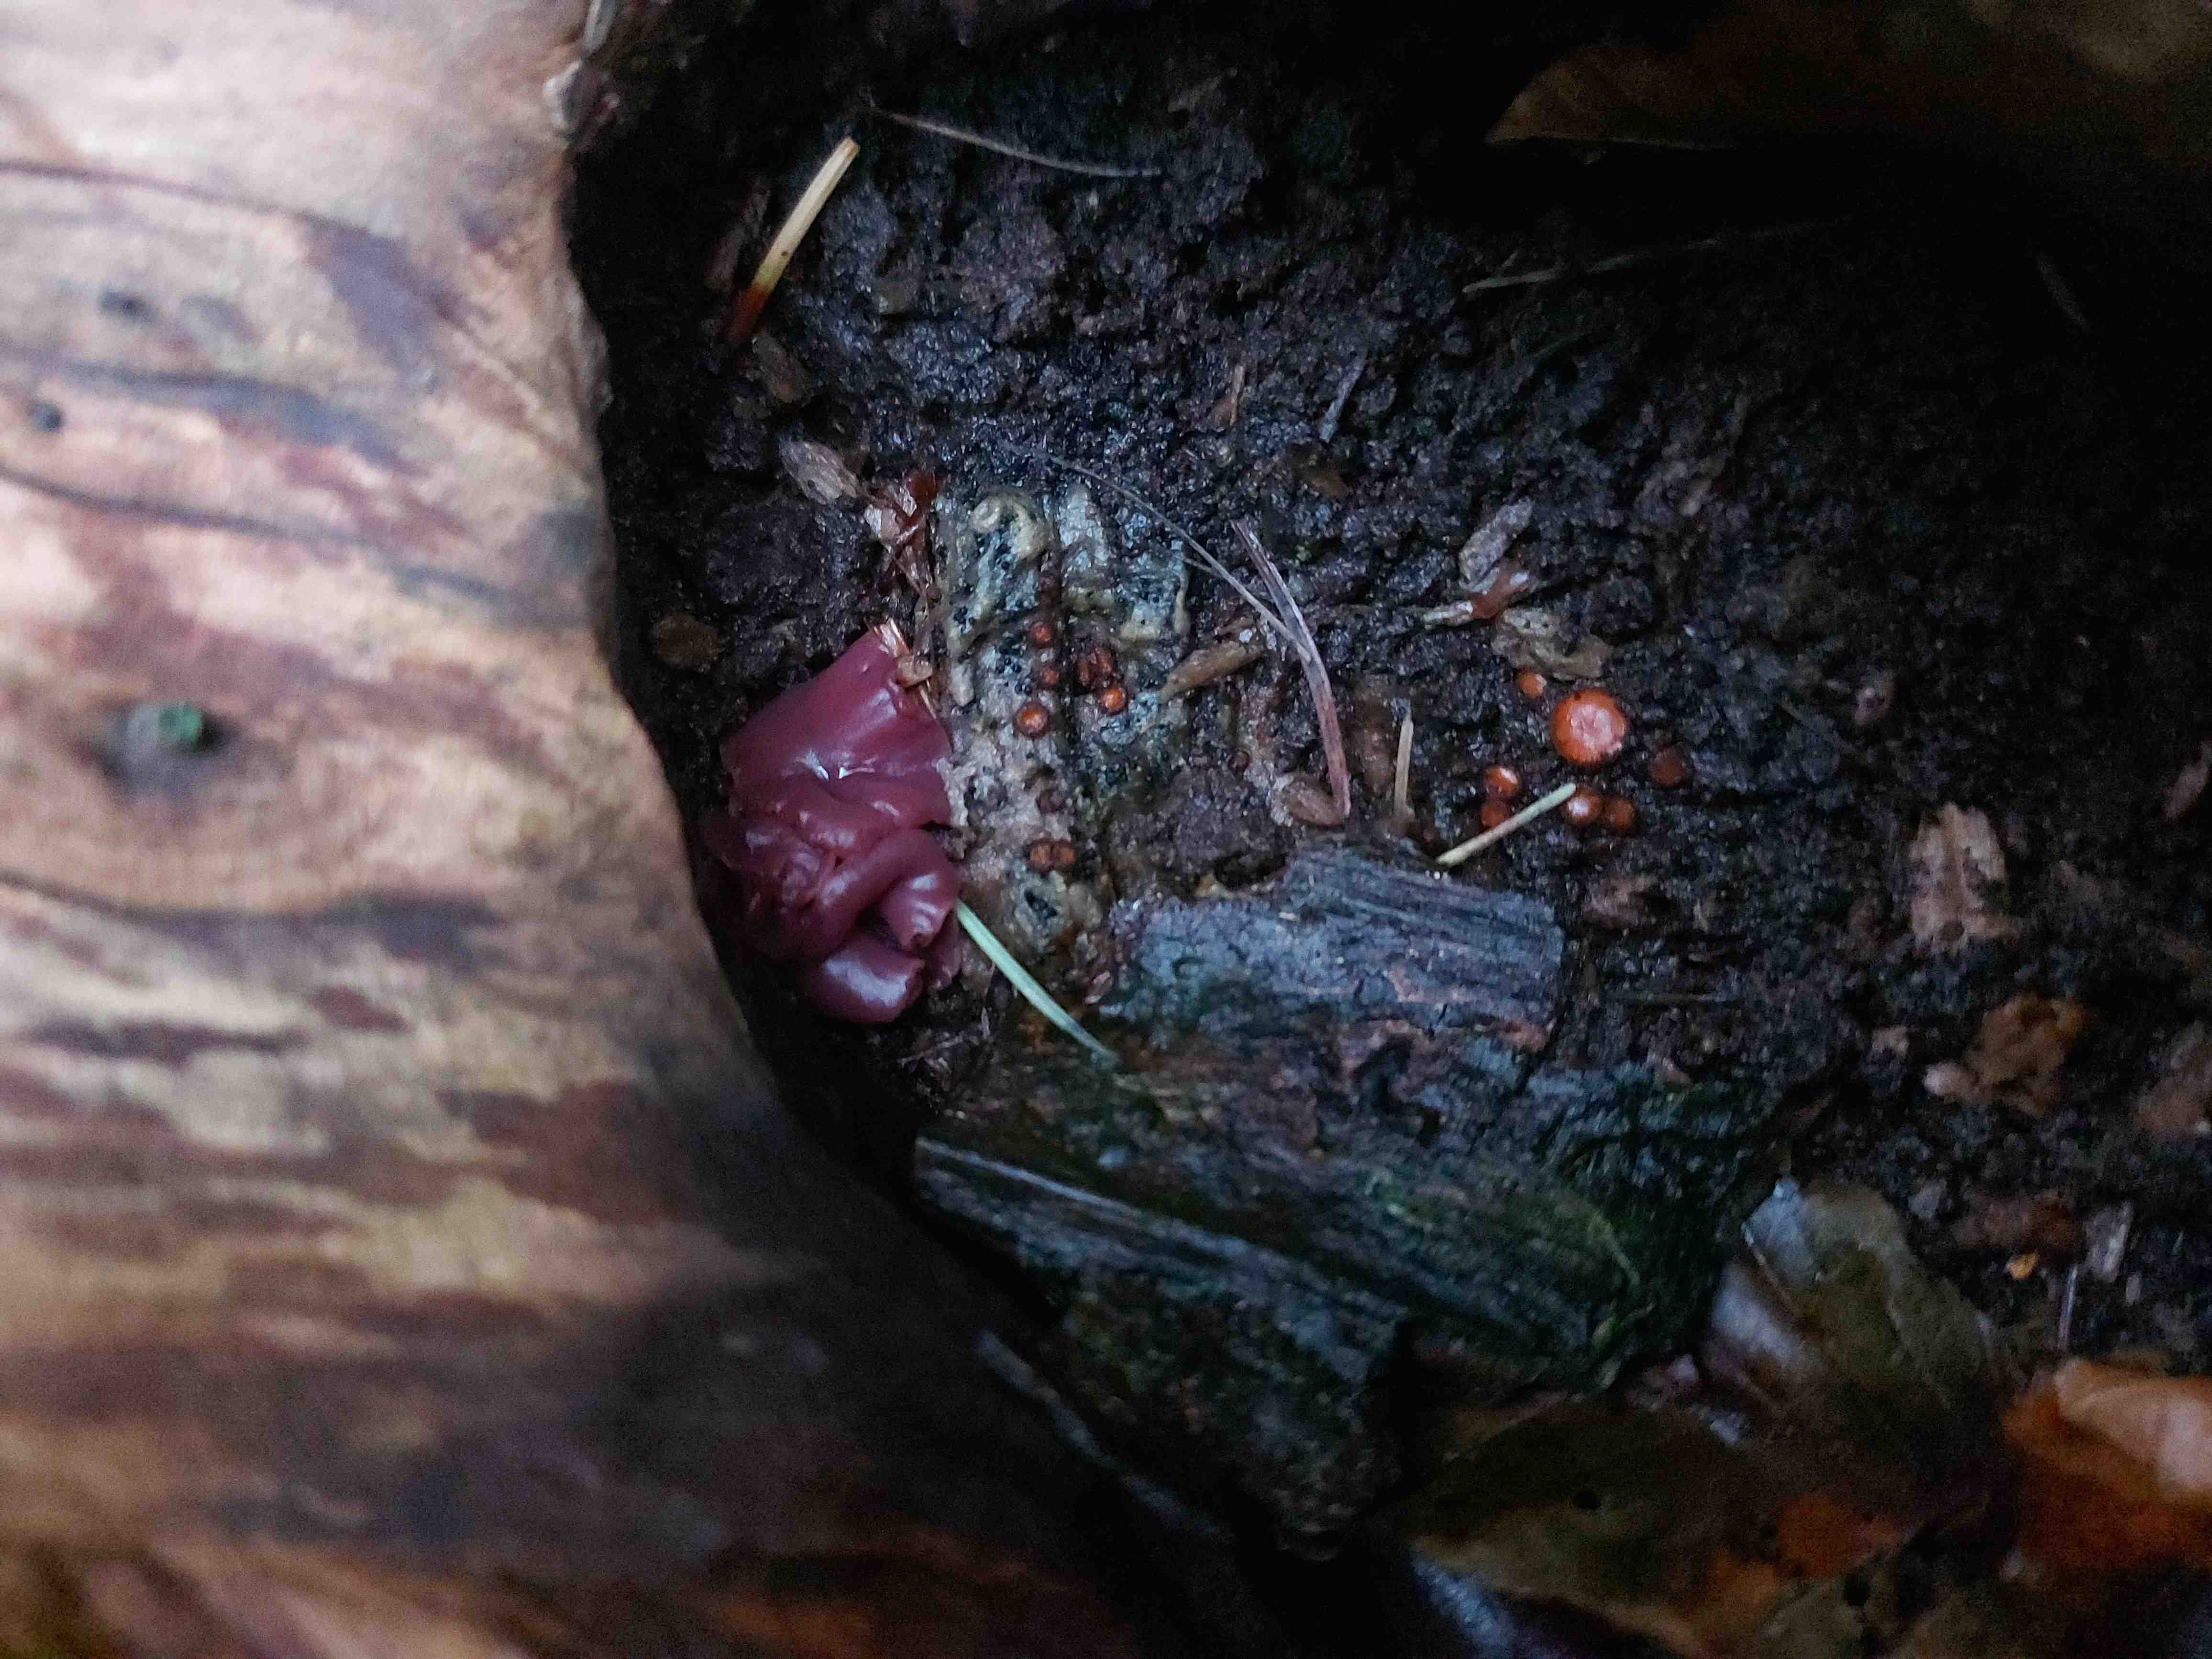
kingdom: Fungi
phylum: Ascomycota
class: Leotiomycetes
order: Helotiales
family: Gelatinodiscaceae
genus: Ascocoryne
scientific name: Ascocoryne cylichnium
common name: stor sejskive
